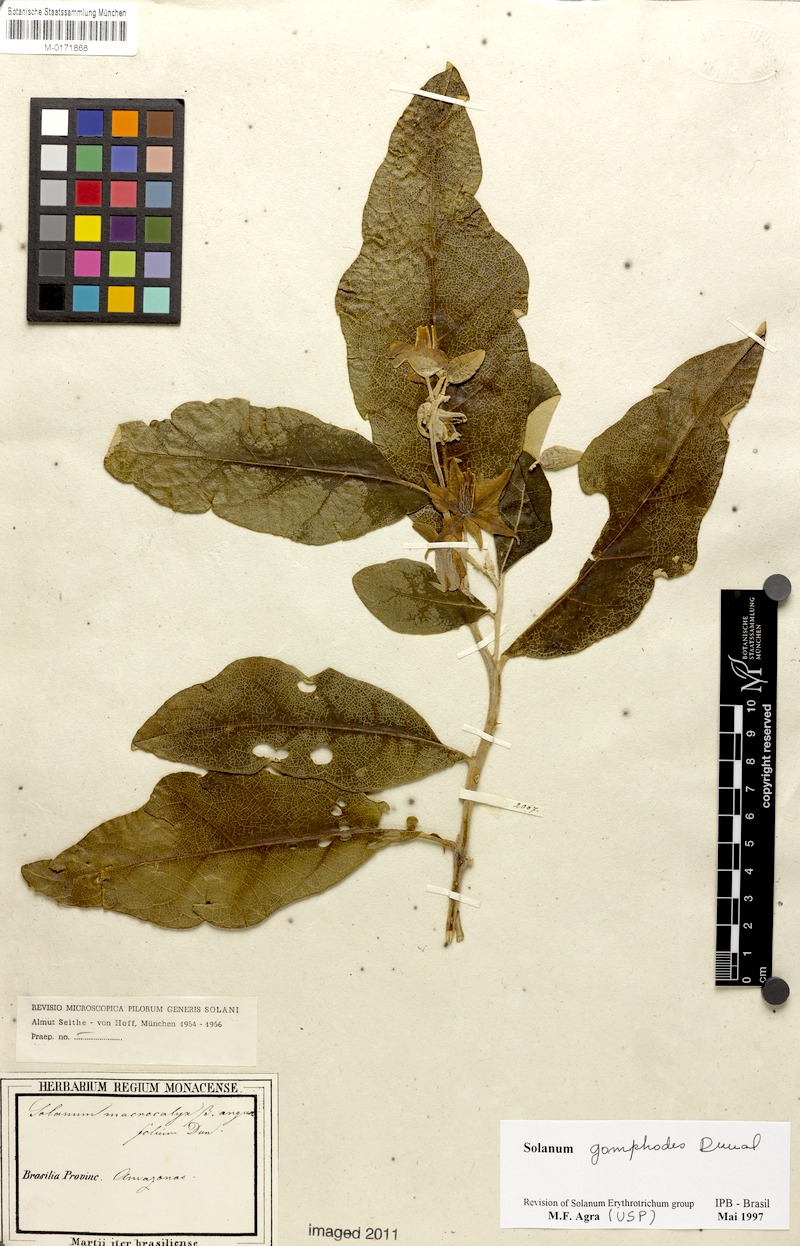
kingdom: Plantae
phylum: Tracheophyta
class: Magnoliopsida
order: Solanales
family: Solanaceae
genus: Solanum
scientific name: Solanum gomphodes
